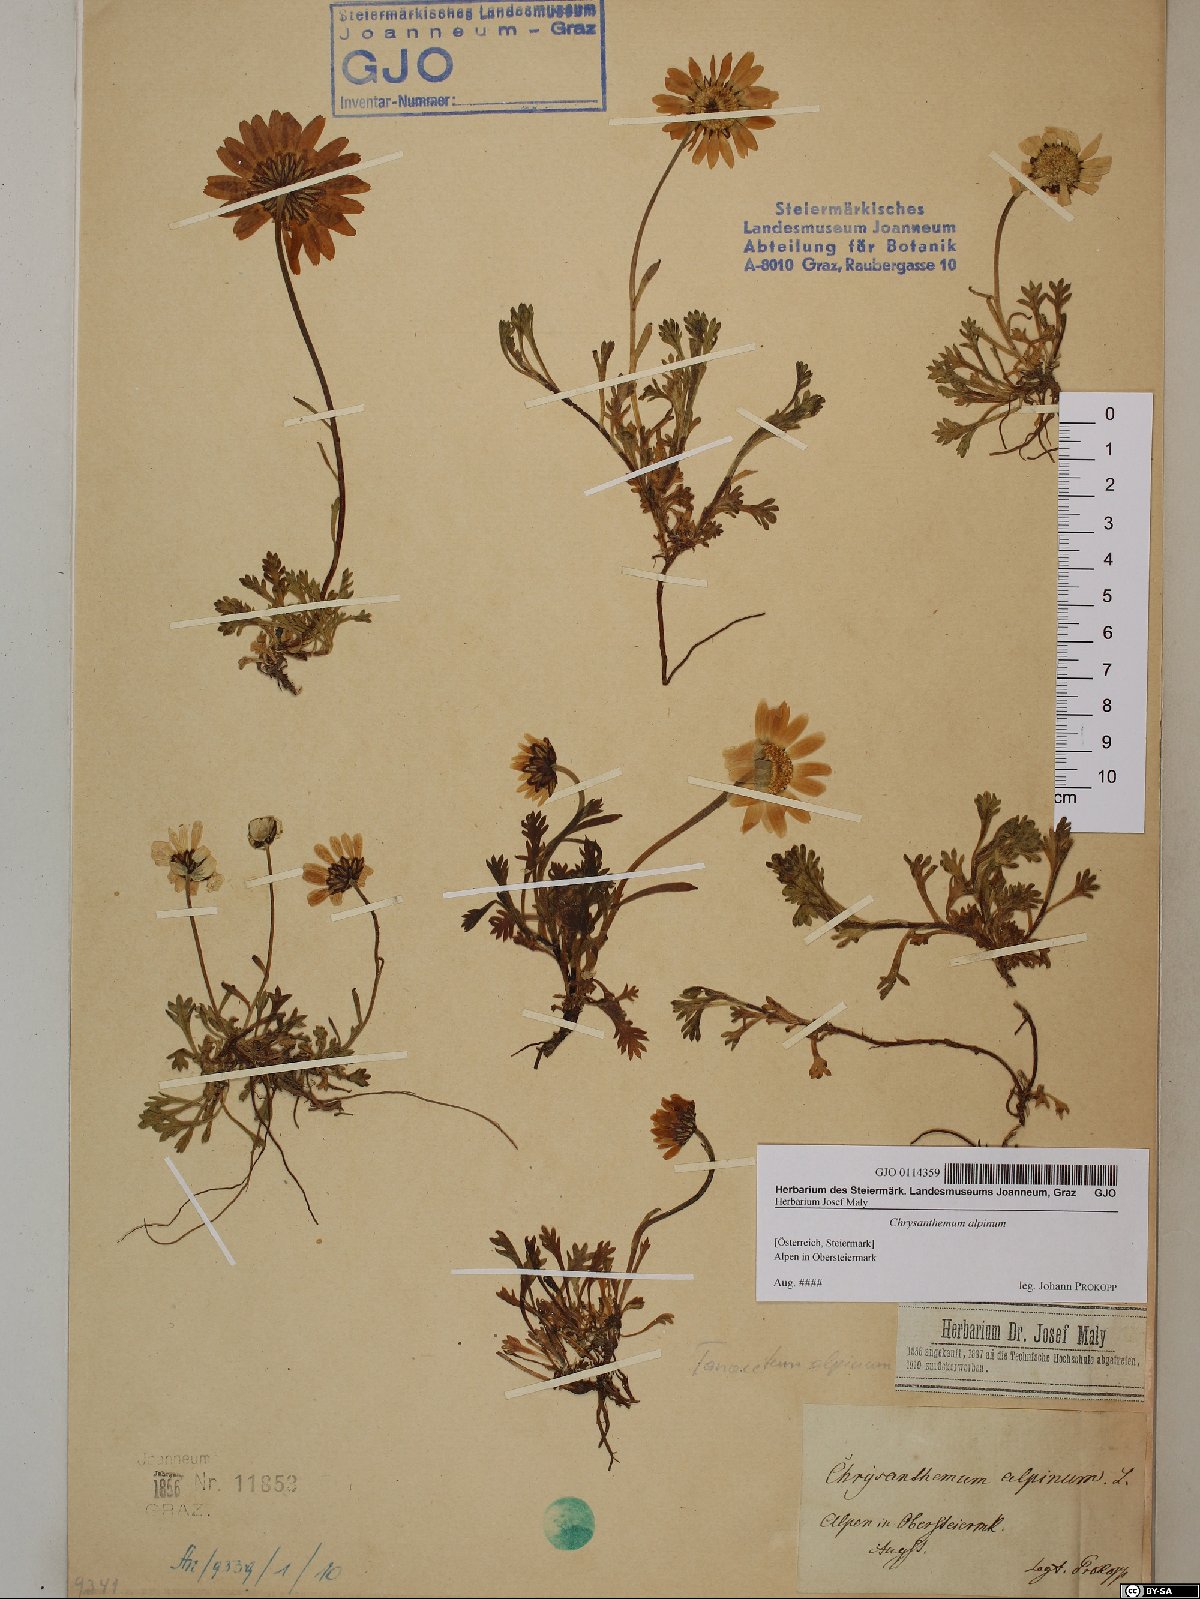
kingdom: Plantae
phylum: Tracheophyta
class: Magnoliopsida
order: Asterales
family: Asteraceae
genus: Leucanthemopsis
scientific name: Leucanthemopsis alpina
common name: Alpine moon daisy
